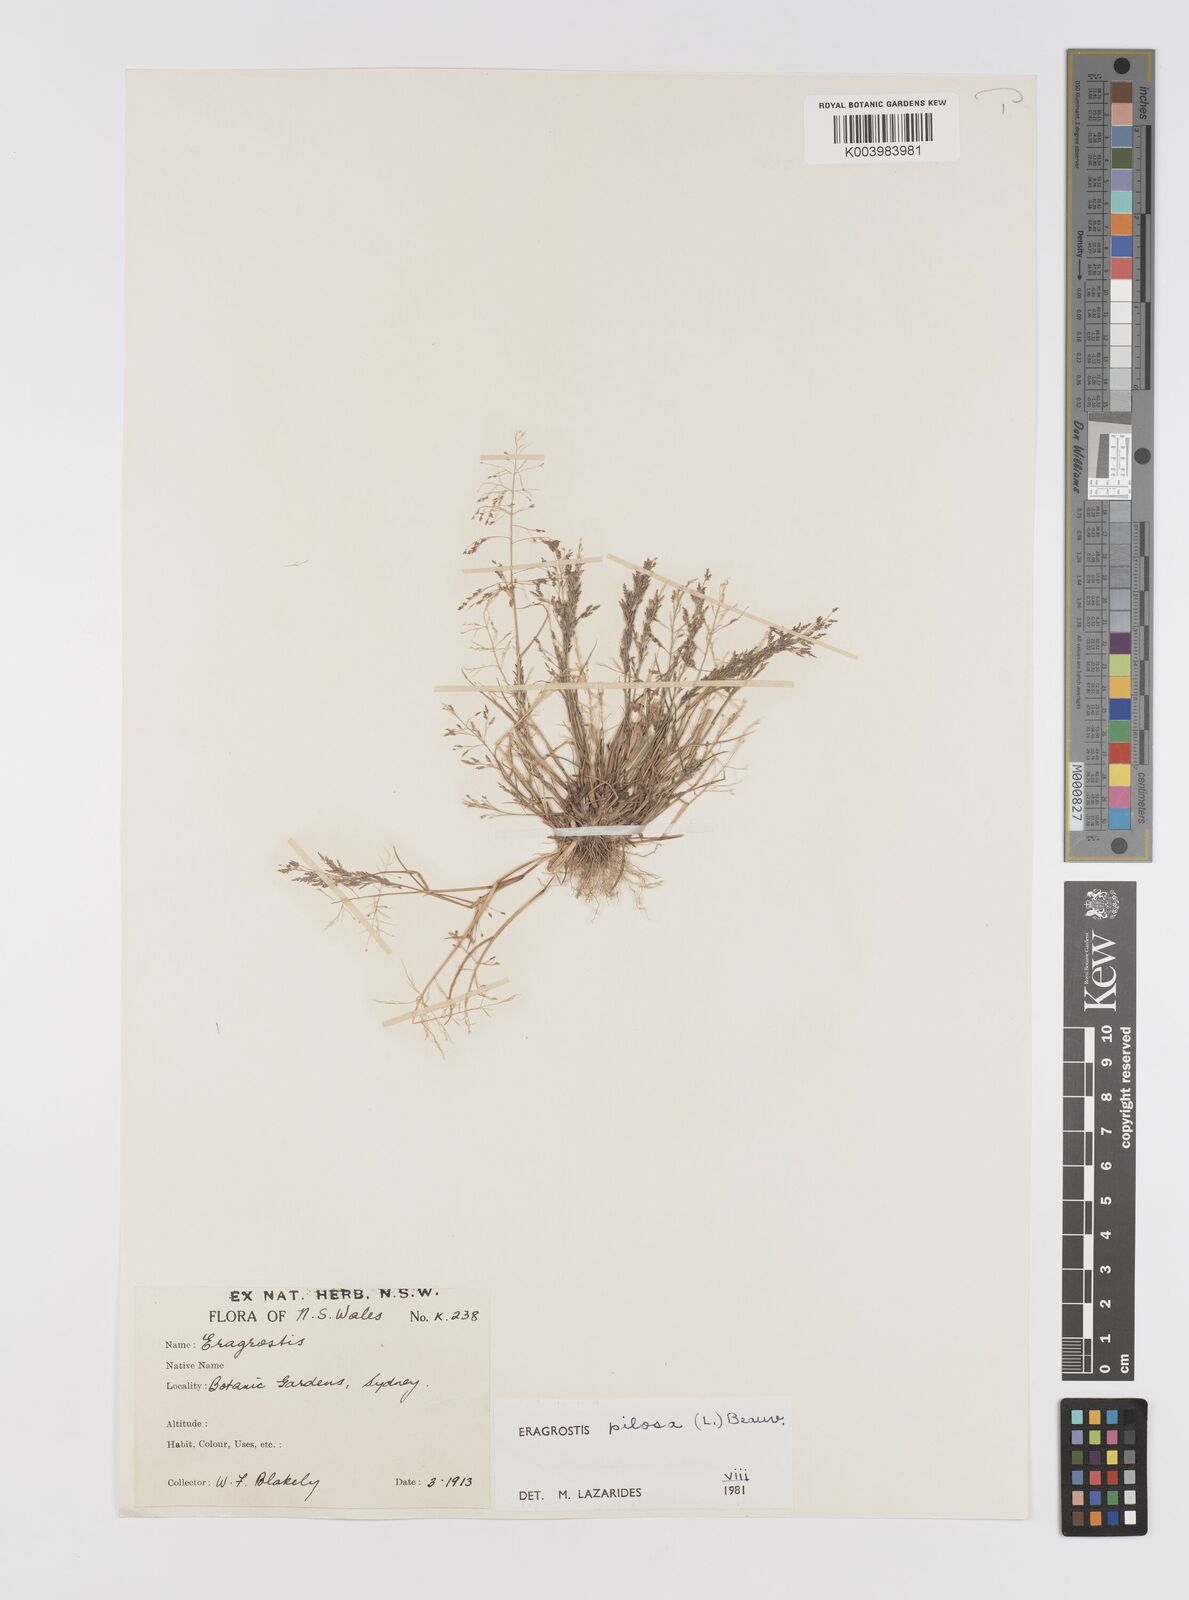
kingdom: Plantae
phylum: Tracheophyta
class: Liliopsida
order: Poales
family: Poaceae
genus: Eragrostis
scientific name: Eragrostis pilosa
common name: Indian lovegrass
